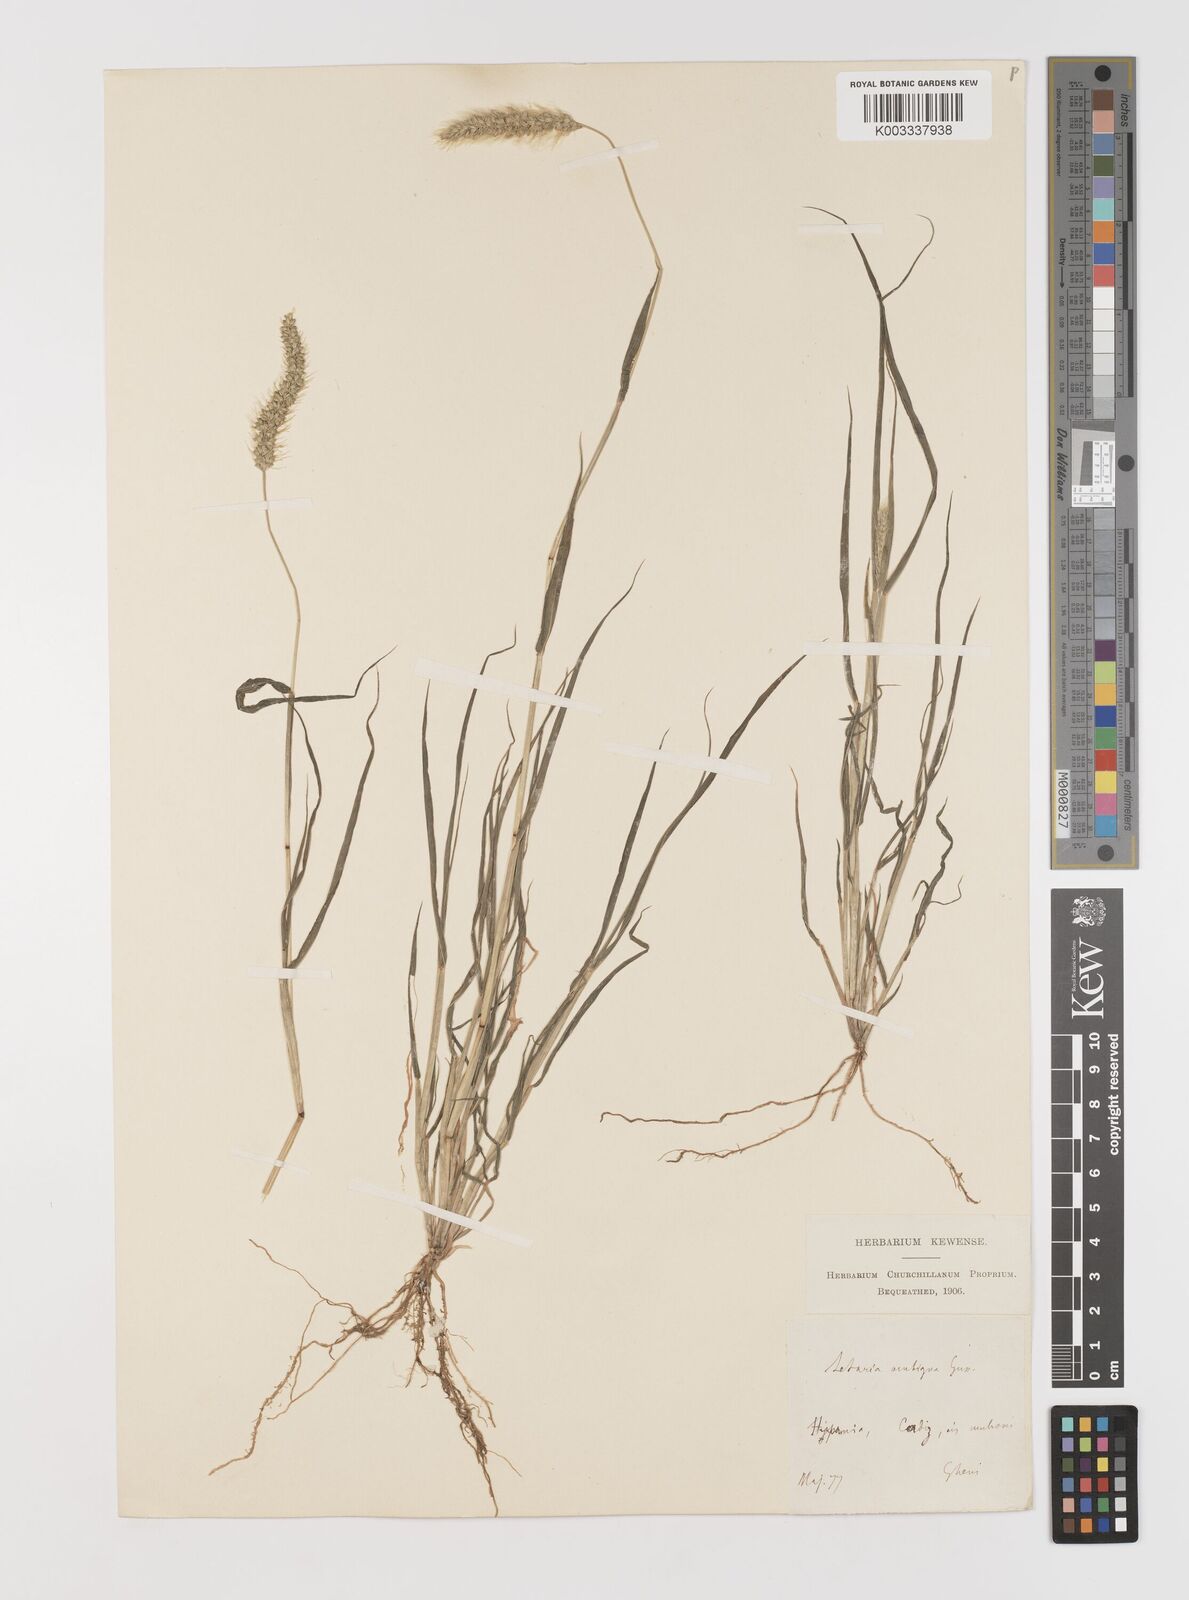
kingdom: Plantae
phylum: Tracheophyta
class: Liliopsida
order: Poales
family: Poaceae
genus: Setaria
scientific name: Setaria viridis
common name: Green bristlegrass
